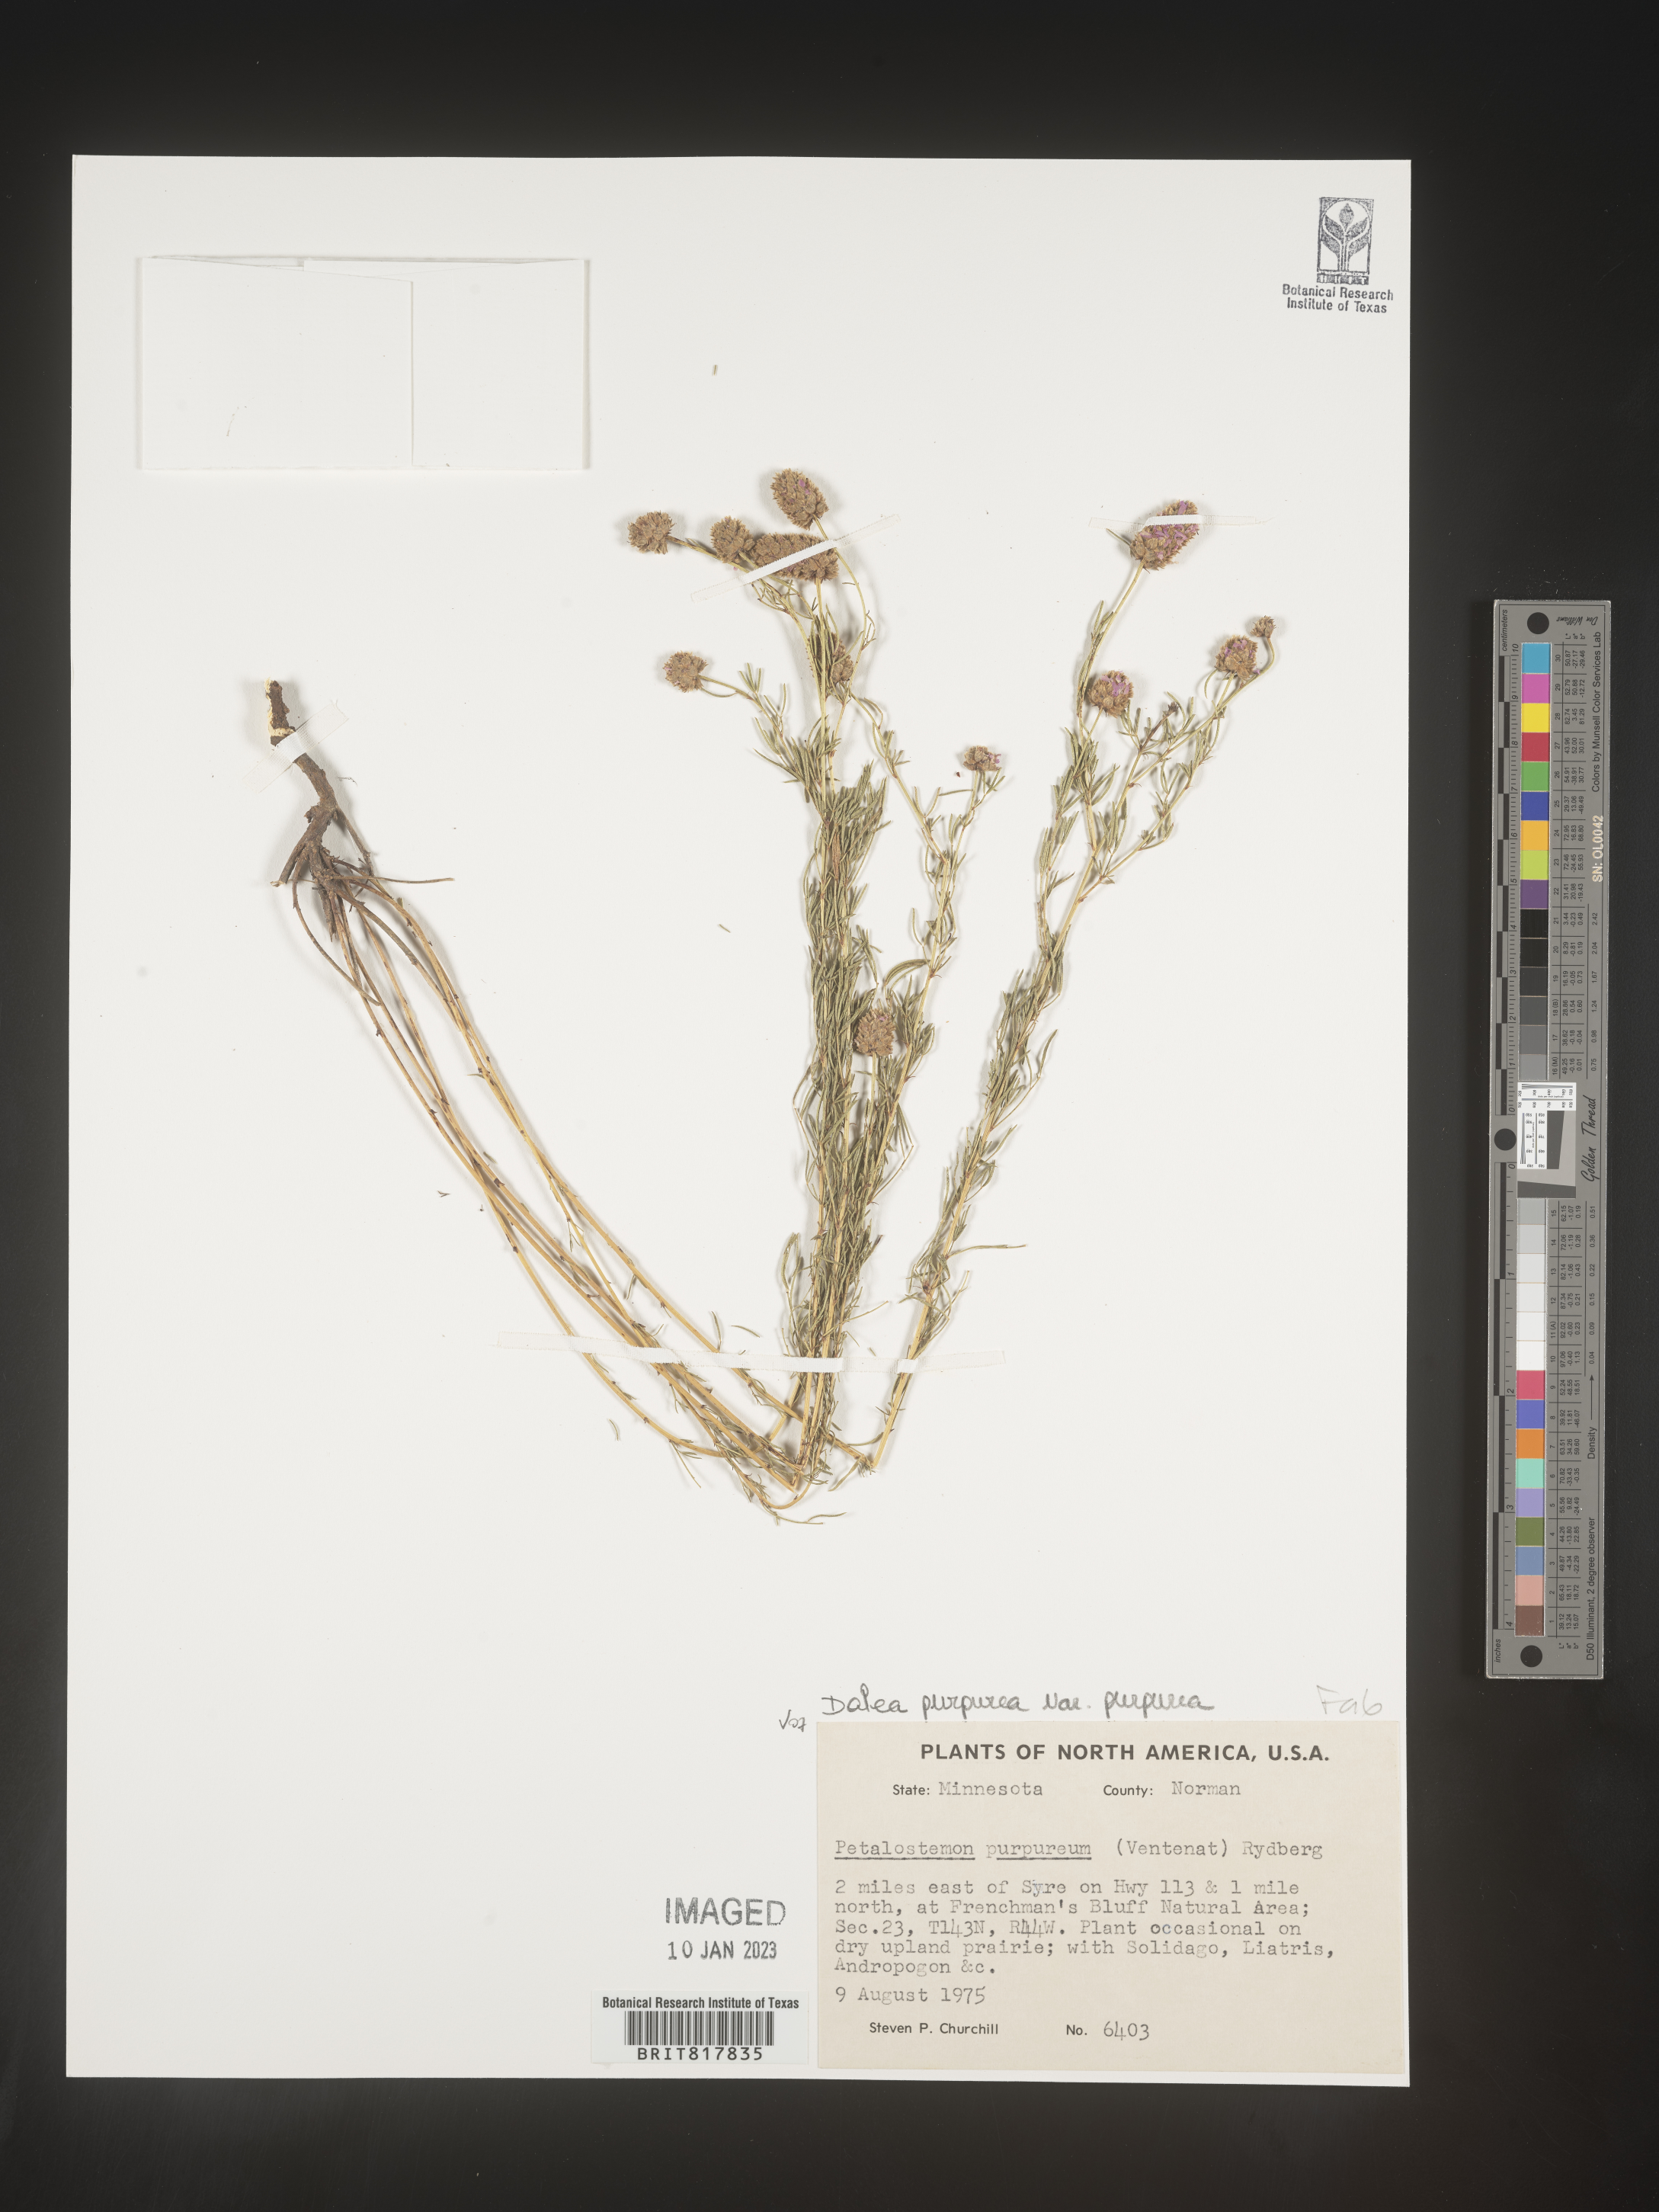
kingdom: Plantae
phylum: Tracheophyta
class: Magnoliopsida
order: Fabales
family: Fabaceae
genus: Dalea
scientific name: Dalea purpurea
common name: Purple prairie-clover
